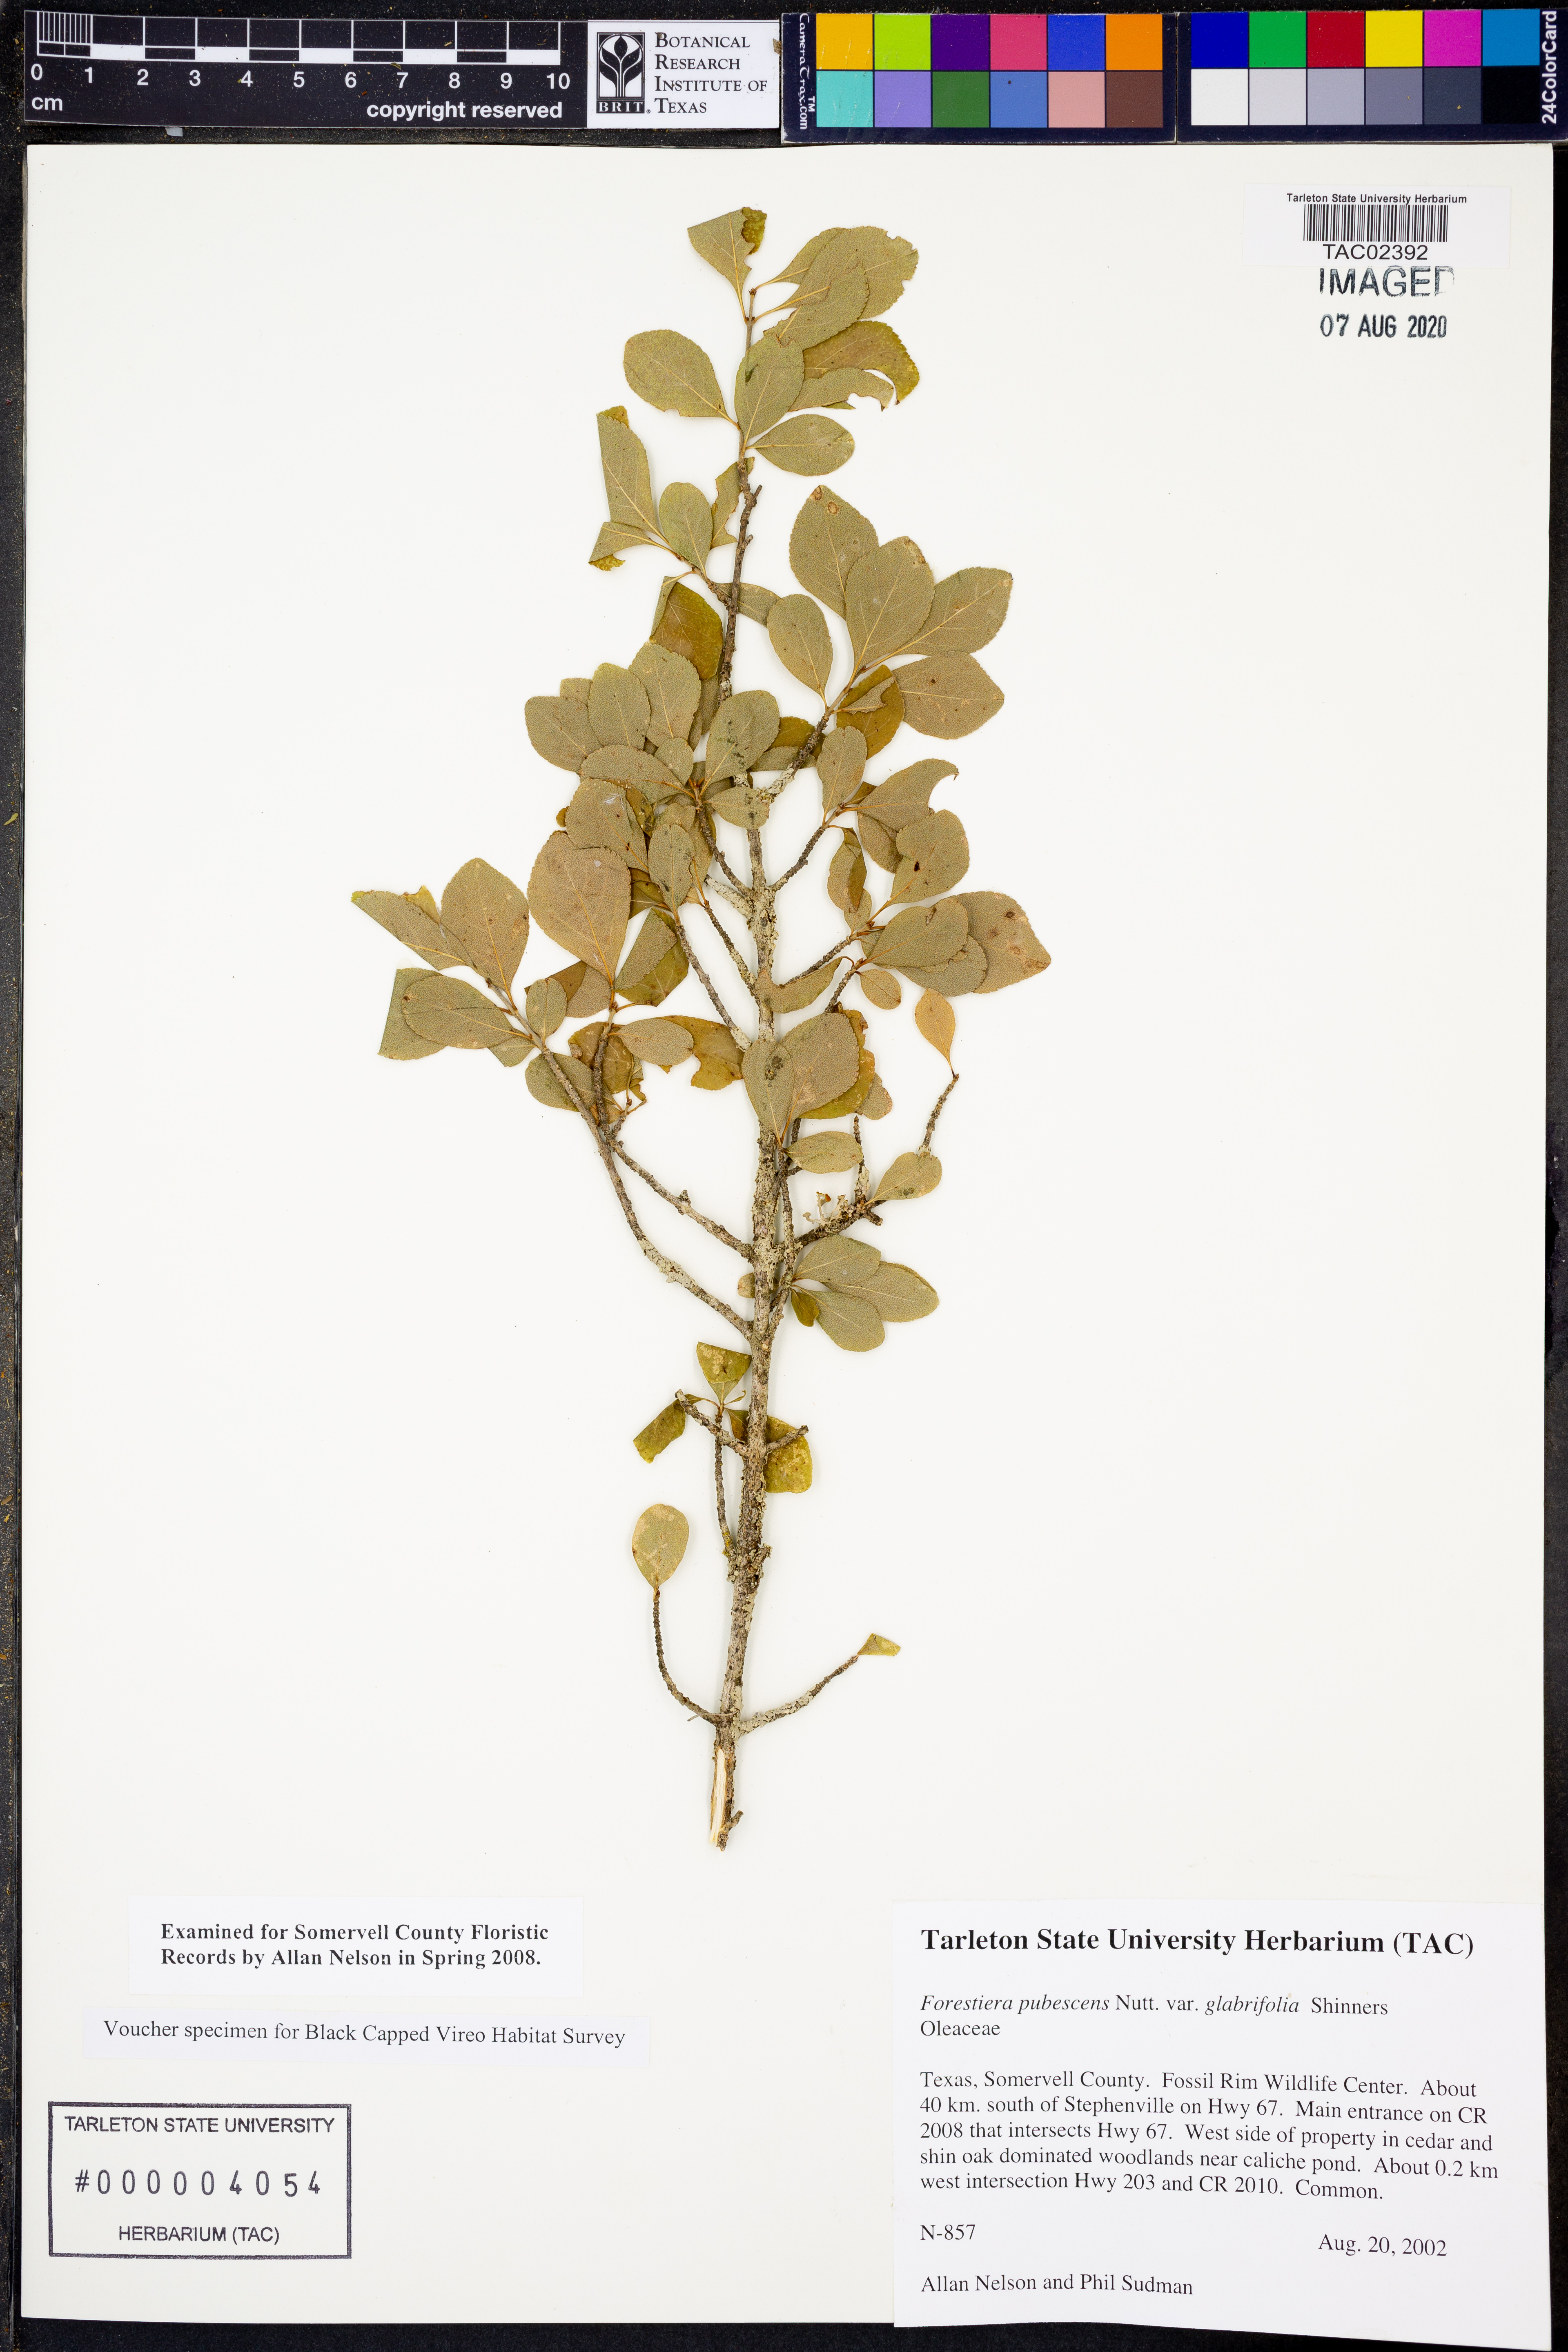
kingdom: Plantae
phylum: Tracheophyta
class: Magnoliopsida
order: Lamiales
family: Oleaceae
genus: Forestiera
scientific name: Forestiera pubescens
